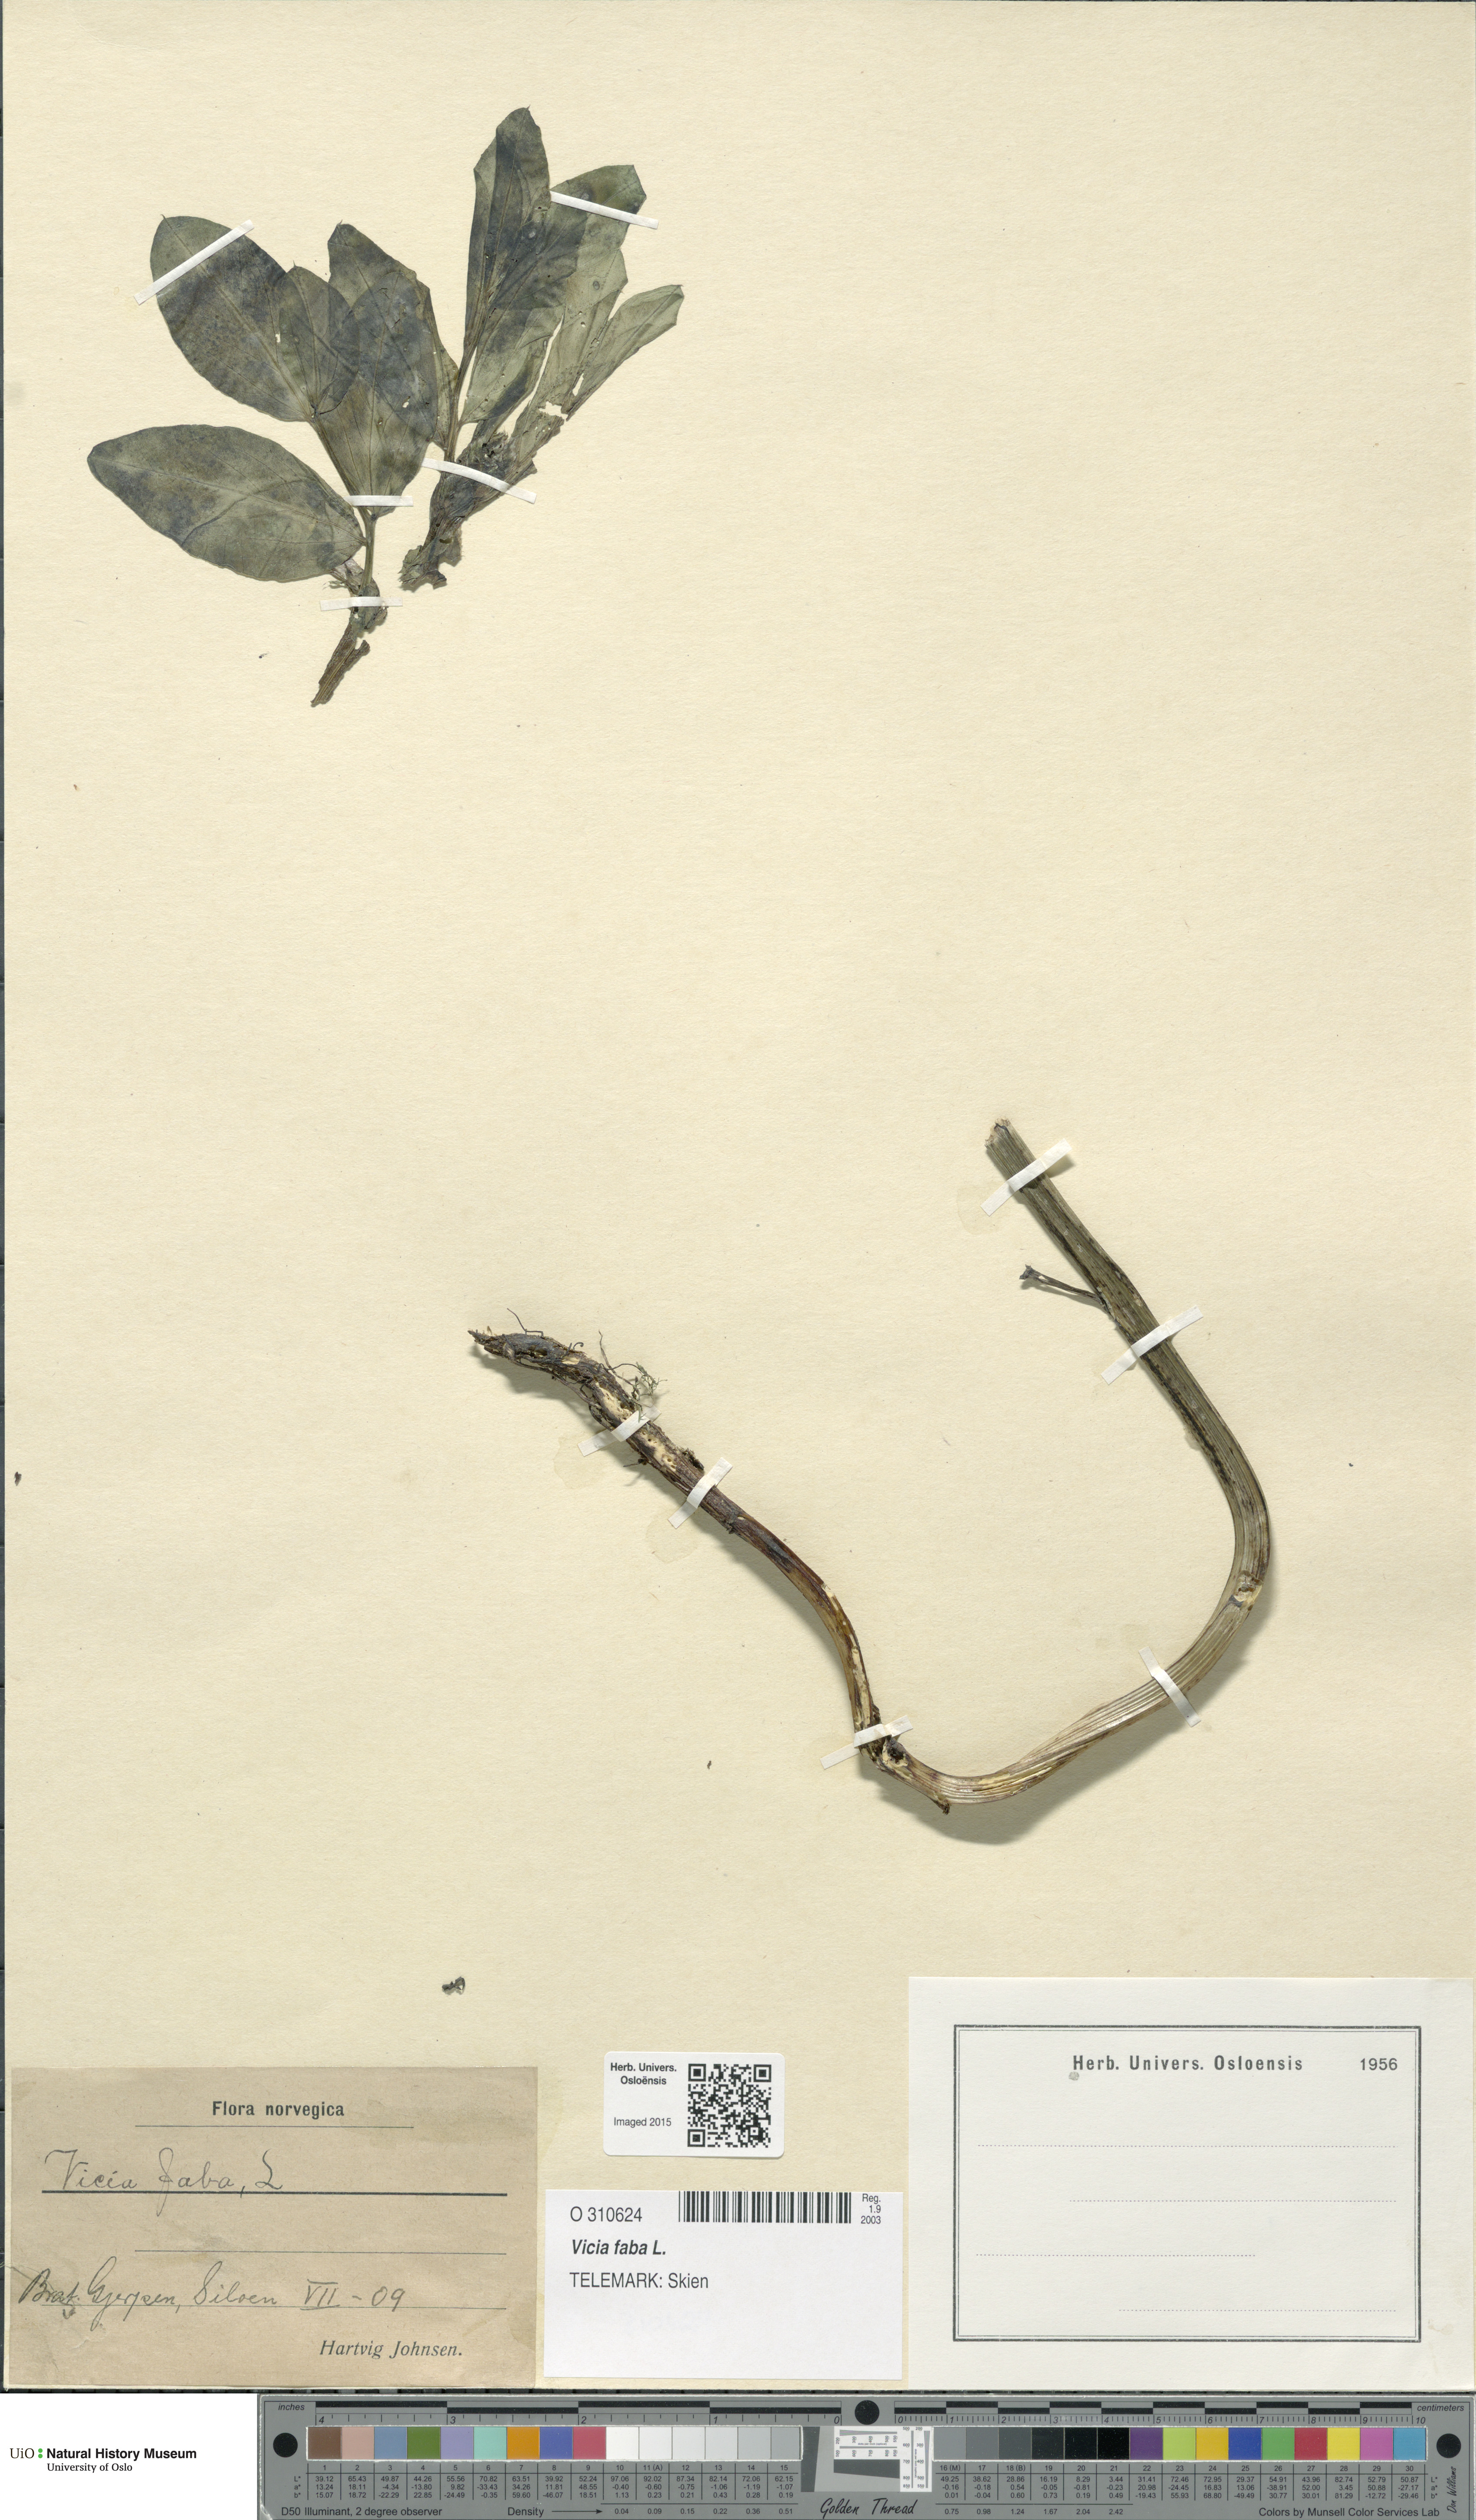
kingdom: Plantae
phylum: Tracheophyta
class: Magnoliopsida
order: Fabales
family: Fabaceae
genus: Vicia
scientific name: Vicia faba
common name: Broad bean
